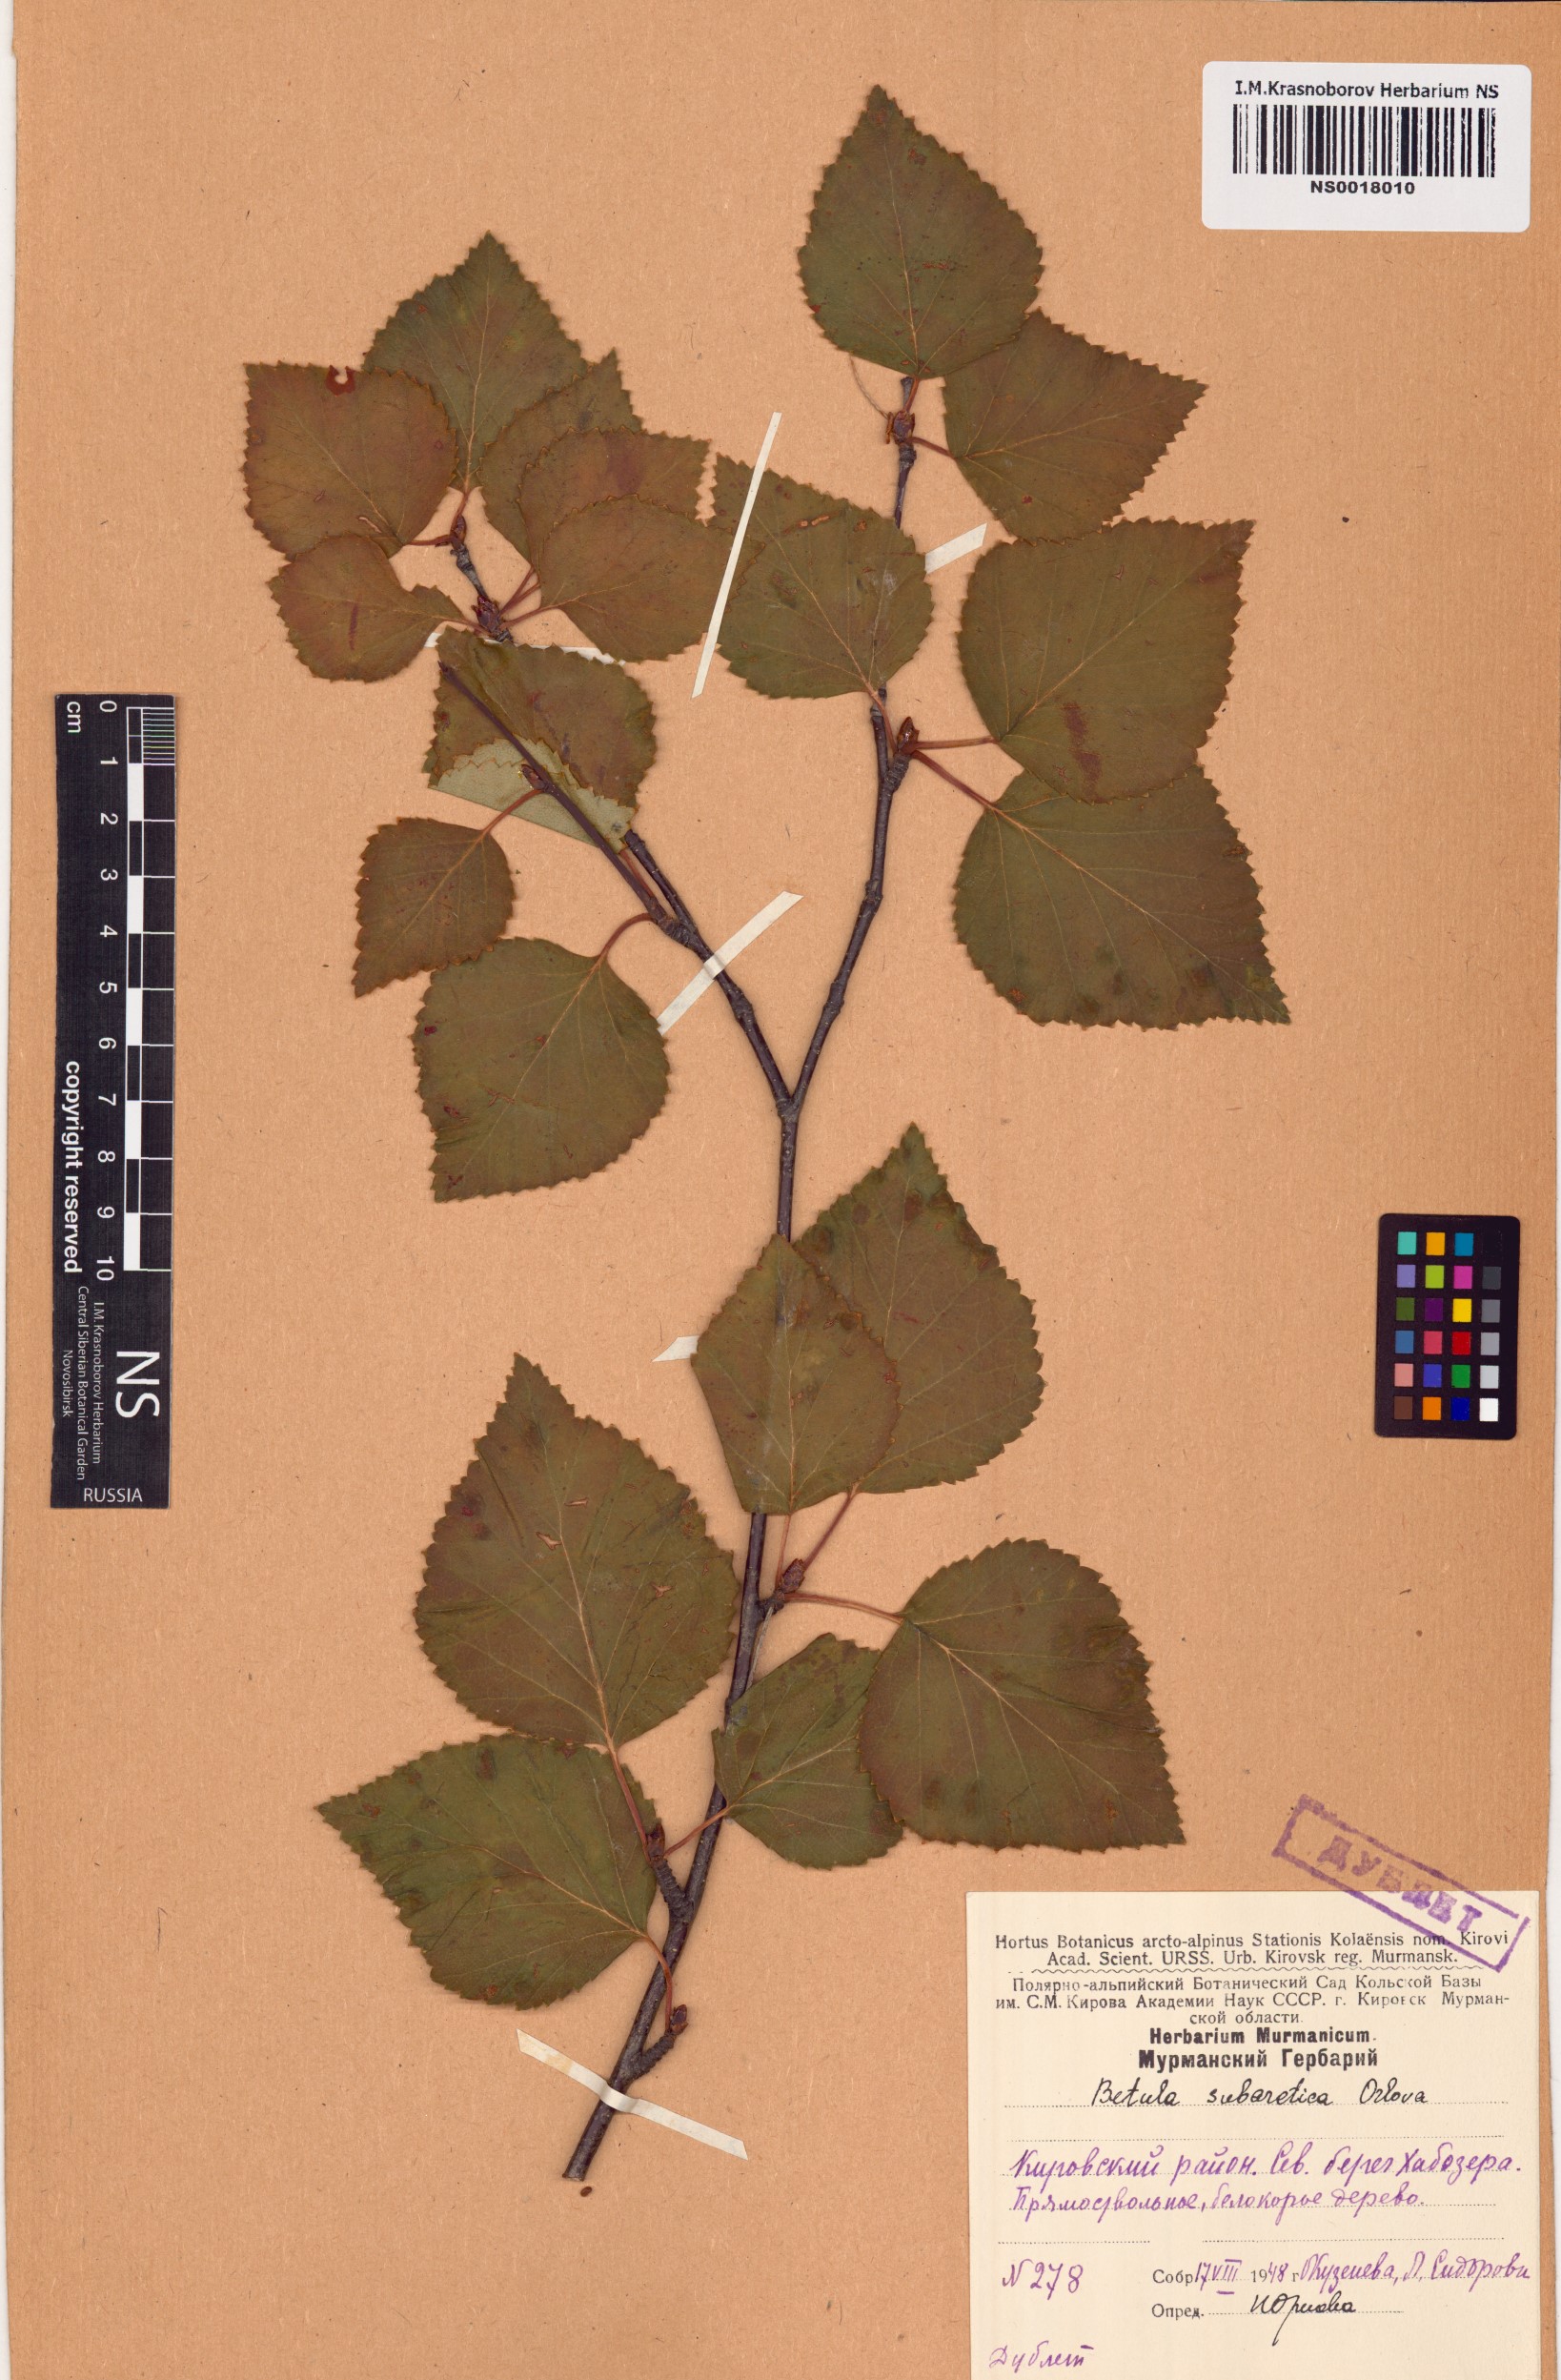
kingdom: Plantae
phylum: Tracheophyta
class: Magnoliopsida
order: Fagales
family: Betulaceae
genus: Betula
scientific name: Betula pubescens
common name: Downy birch
